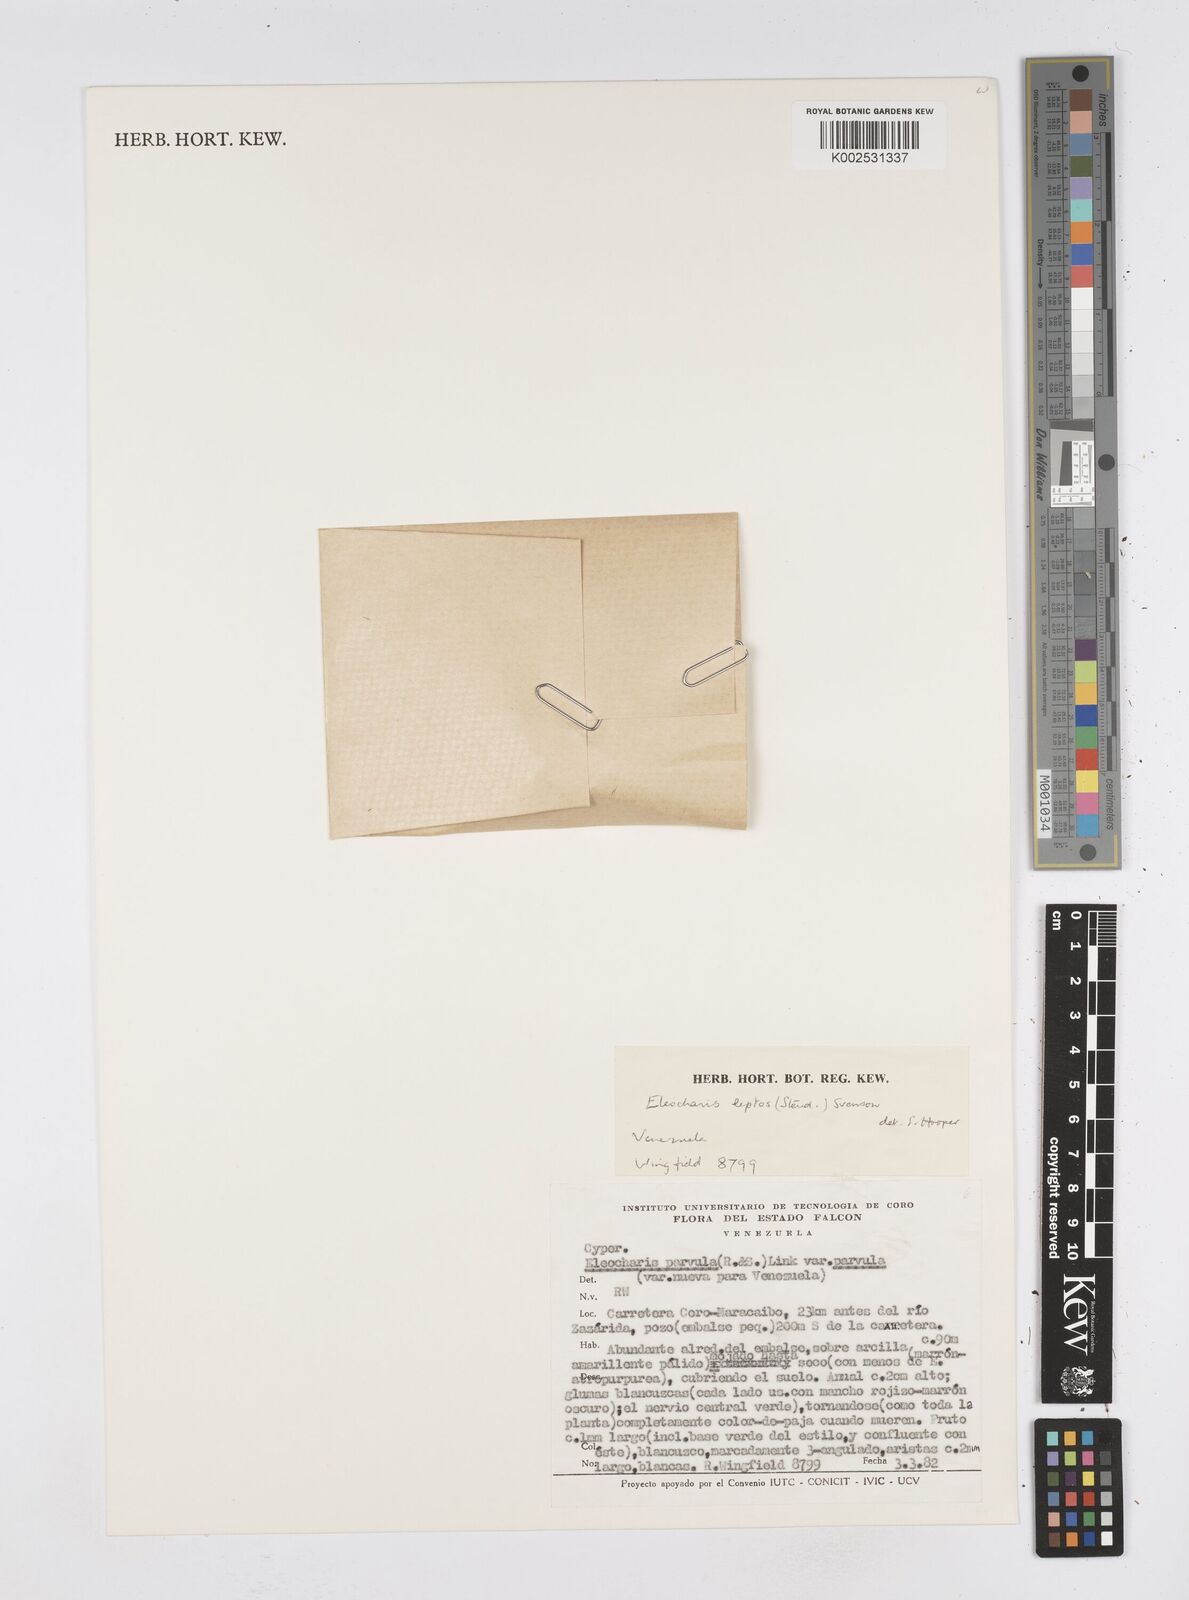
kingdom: Plantae
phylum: Tracheophyta
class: Liliopsida
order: Poales
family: Cyperaceae
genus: Eleocharis
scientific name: Eleocharis parvula
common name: Dwarf spike-rush
